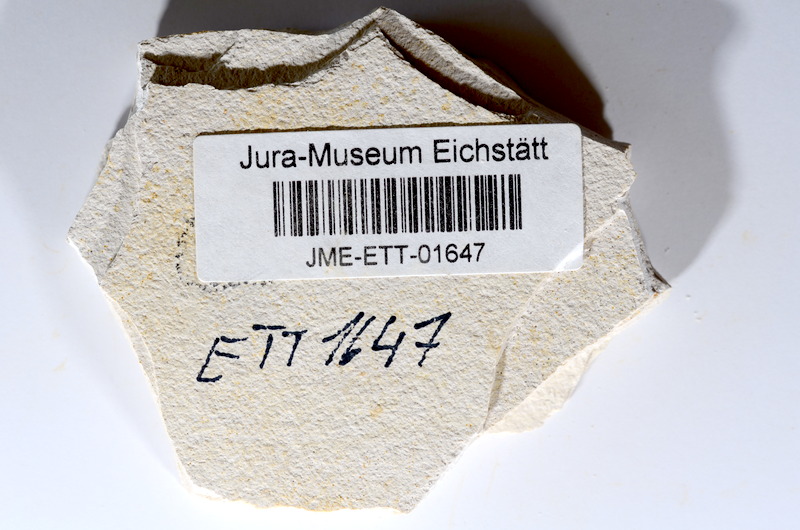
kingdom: Animalia
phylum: Chordata
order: Salmoniformes
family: Orthogonikleithridae
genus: Orthogonikleithrus
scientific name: Orthogonikleithrus hoelli
